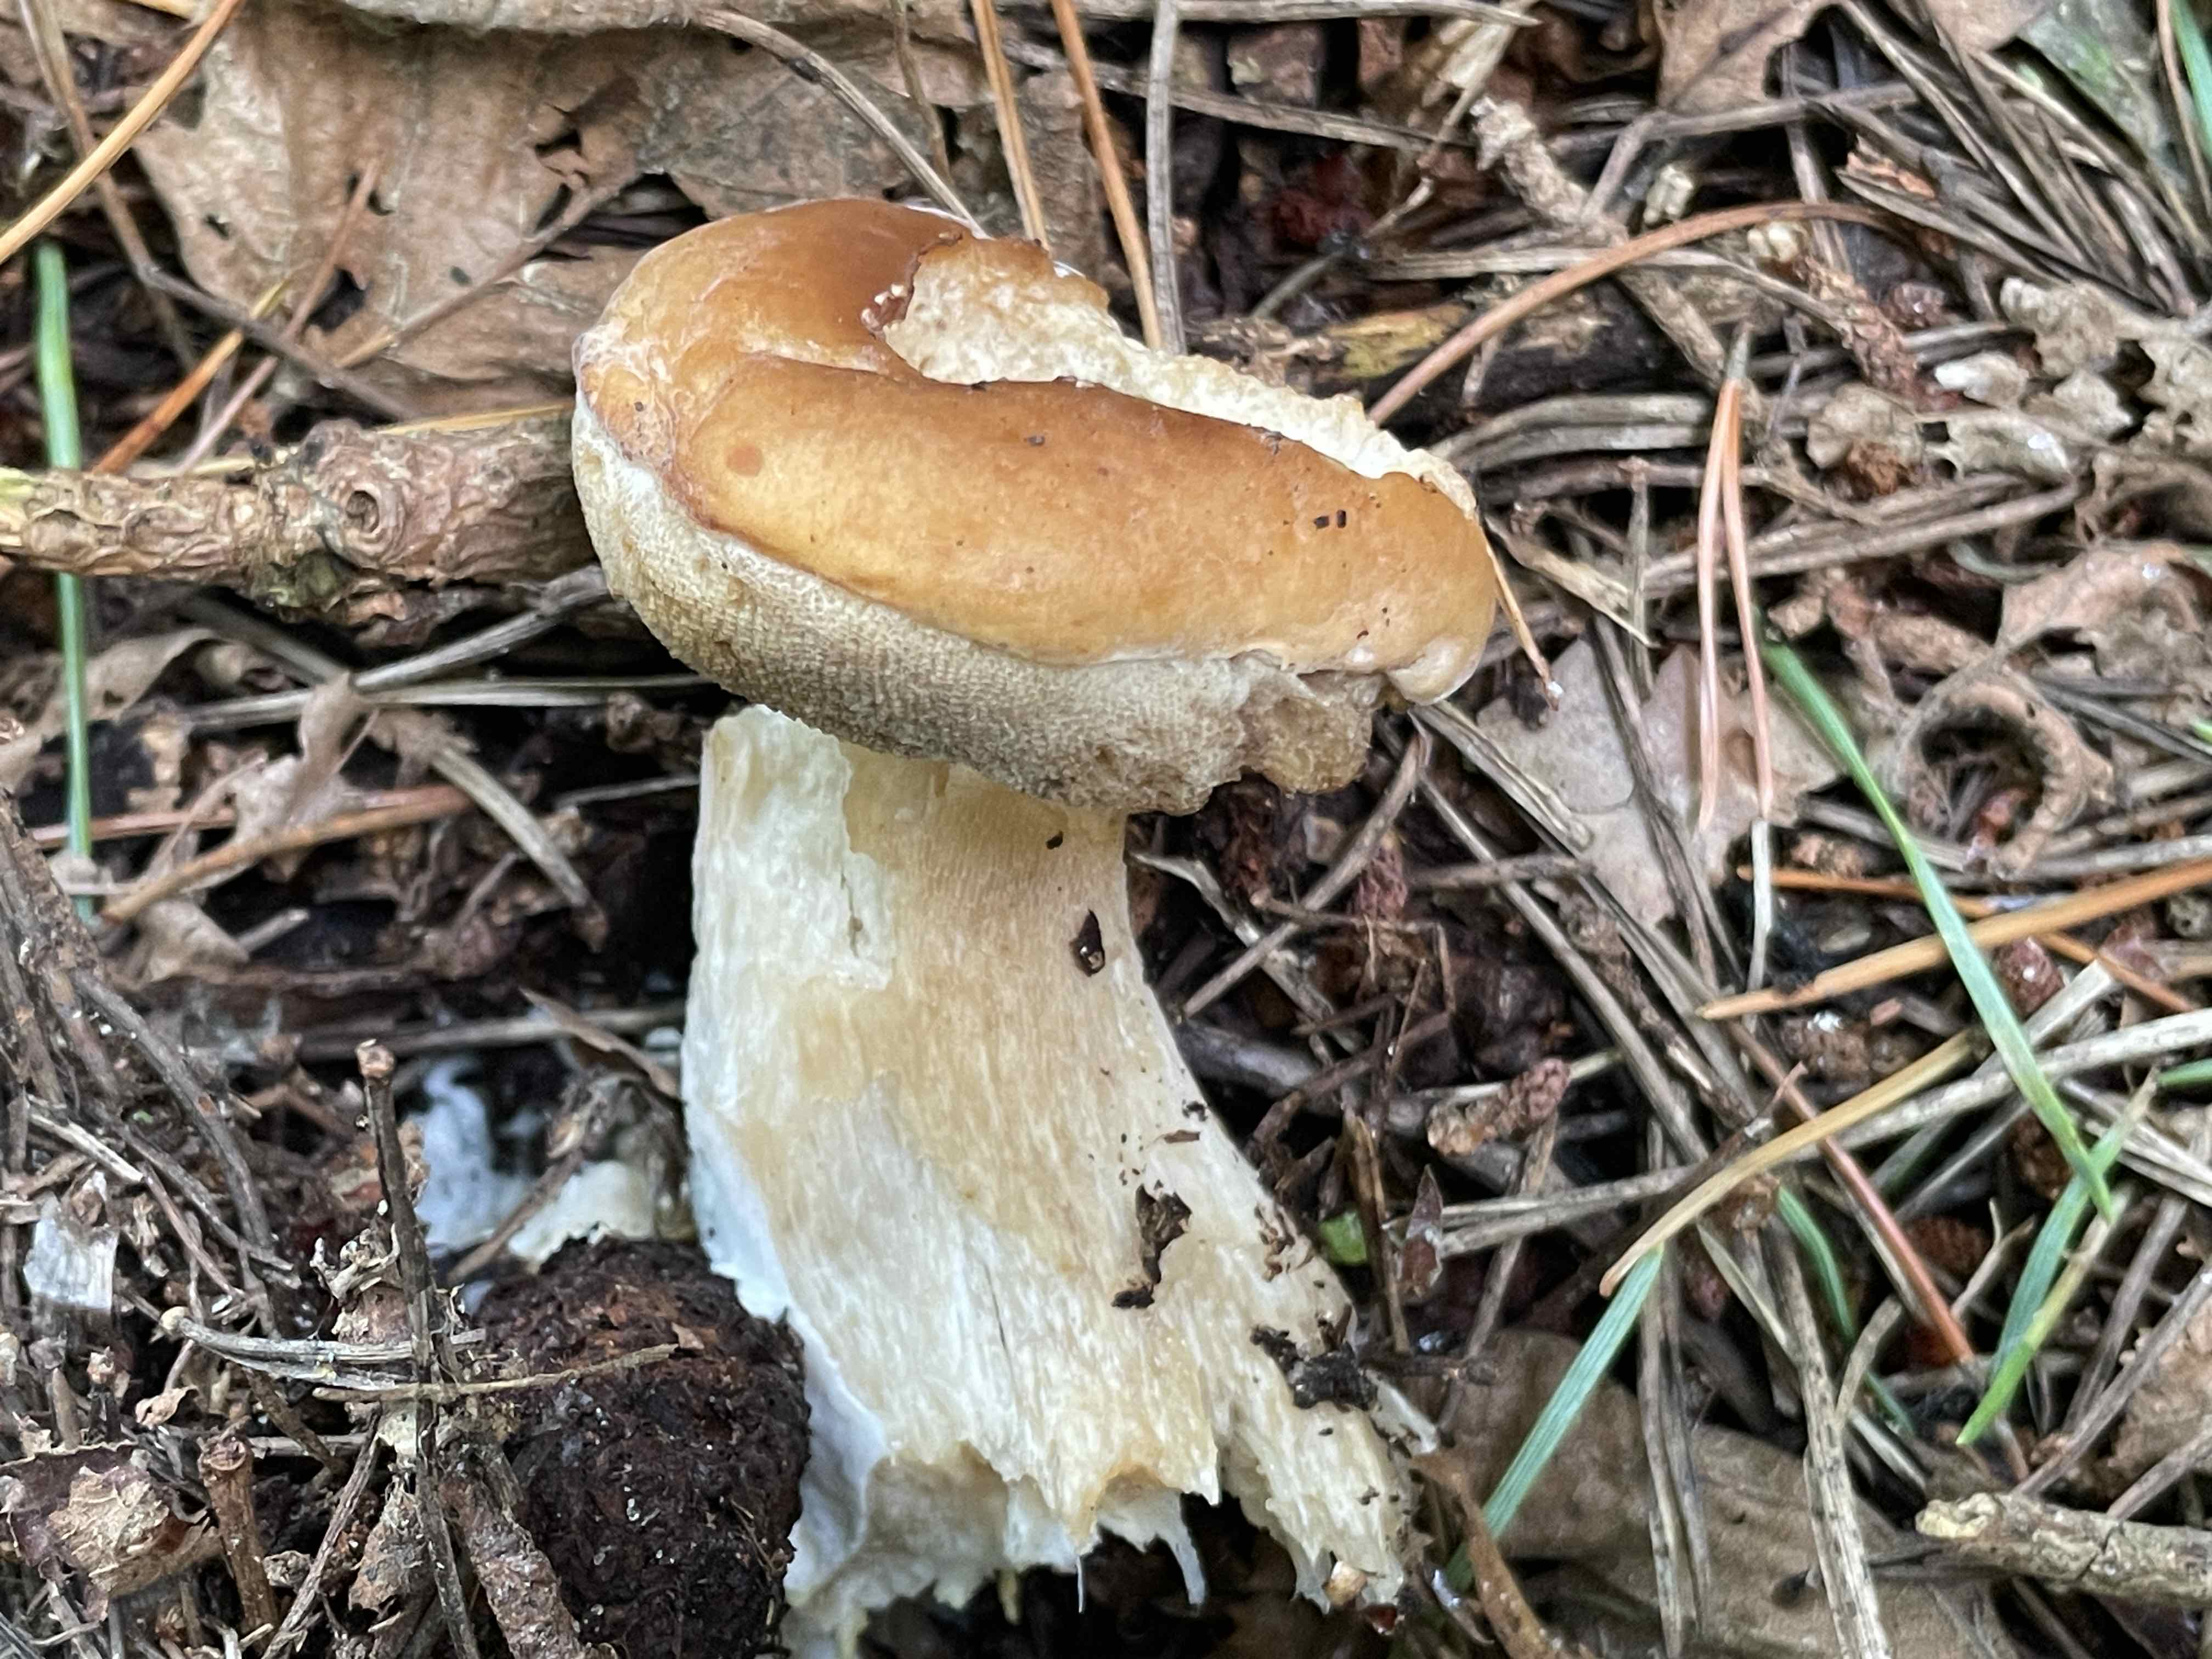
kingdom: Fungi
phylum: Basidiomycota
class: Agaricomycetes
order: Boletales
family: Boletaceae
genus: Boletus
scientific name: Boletus edulis
